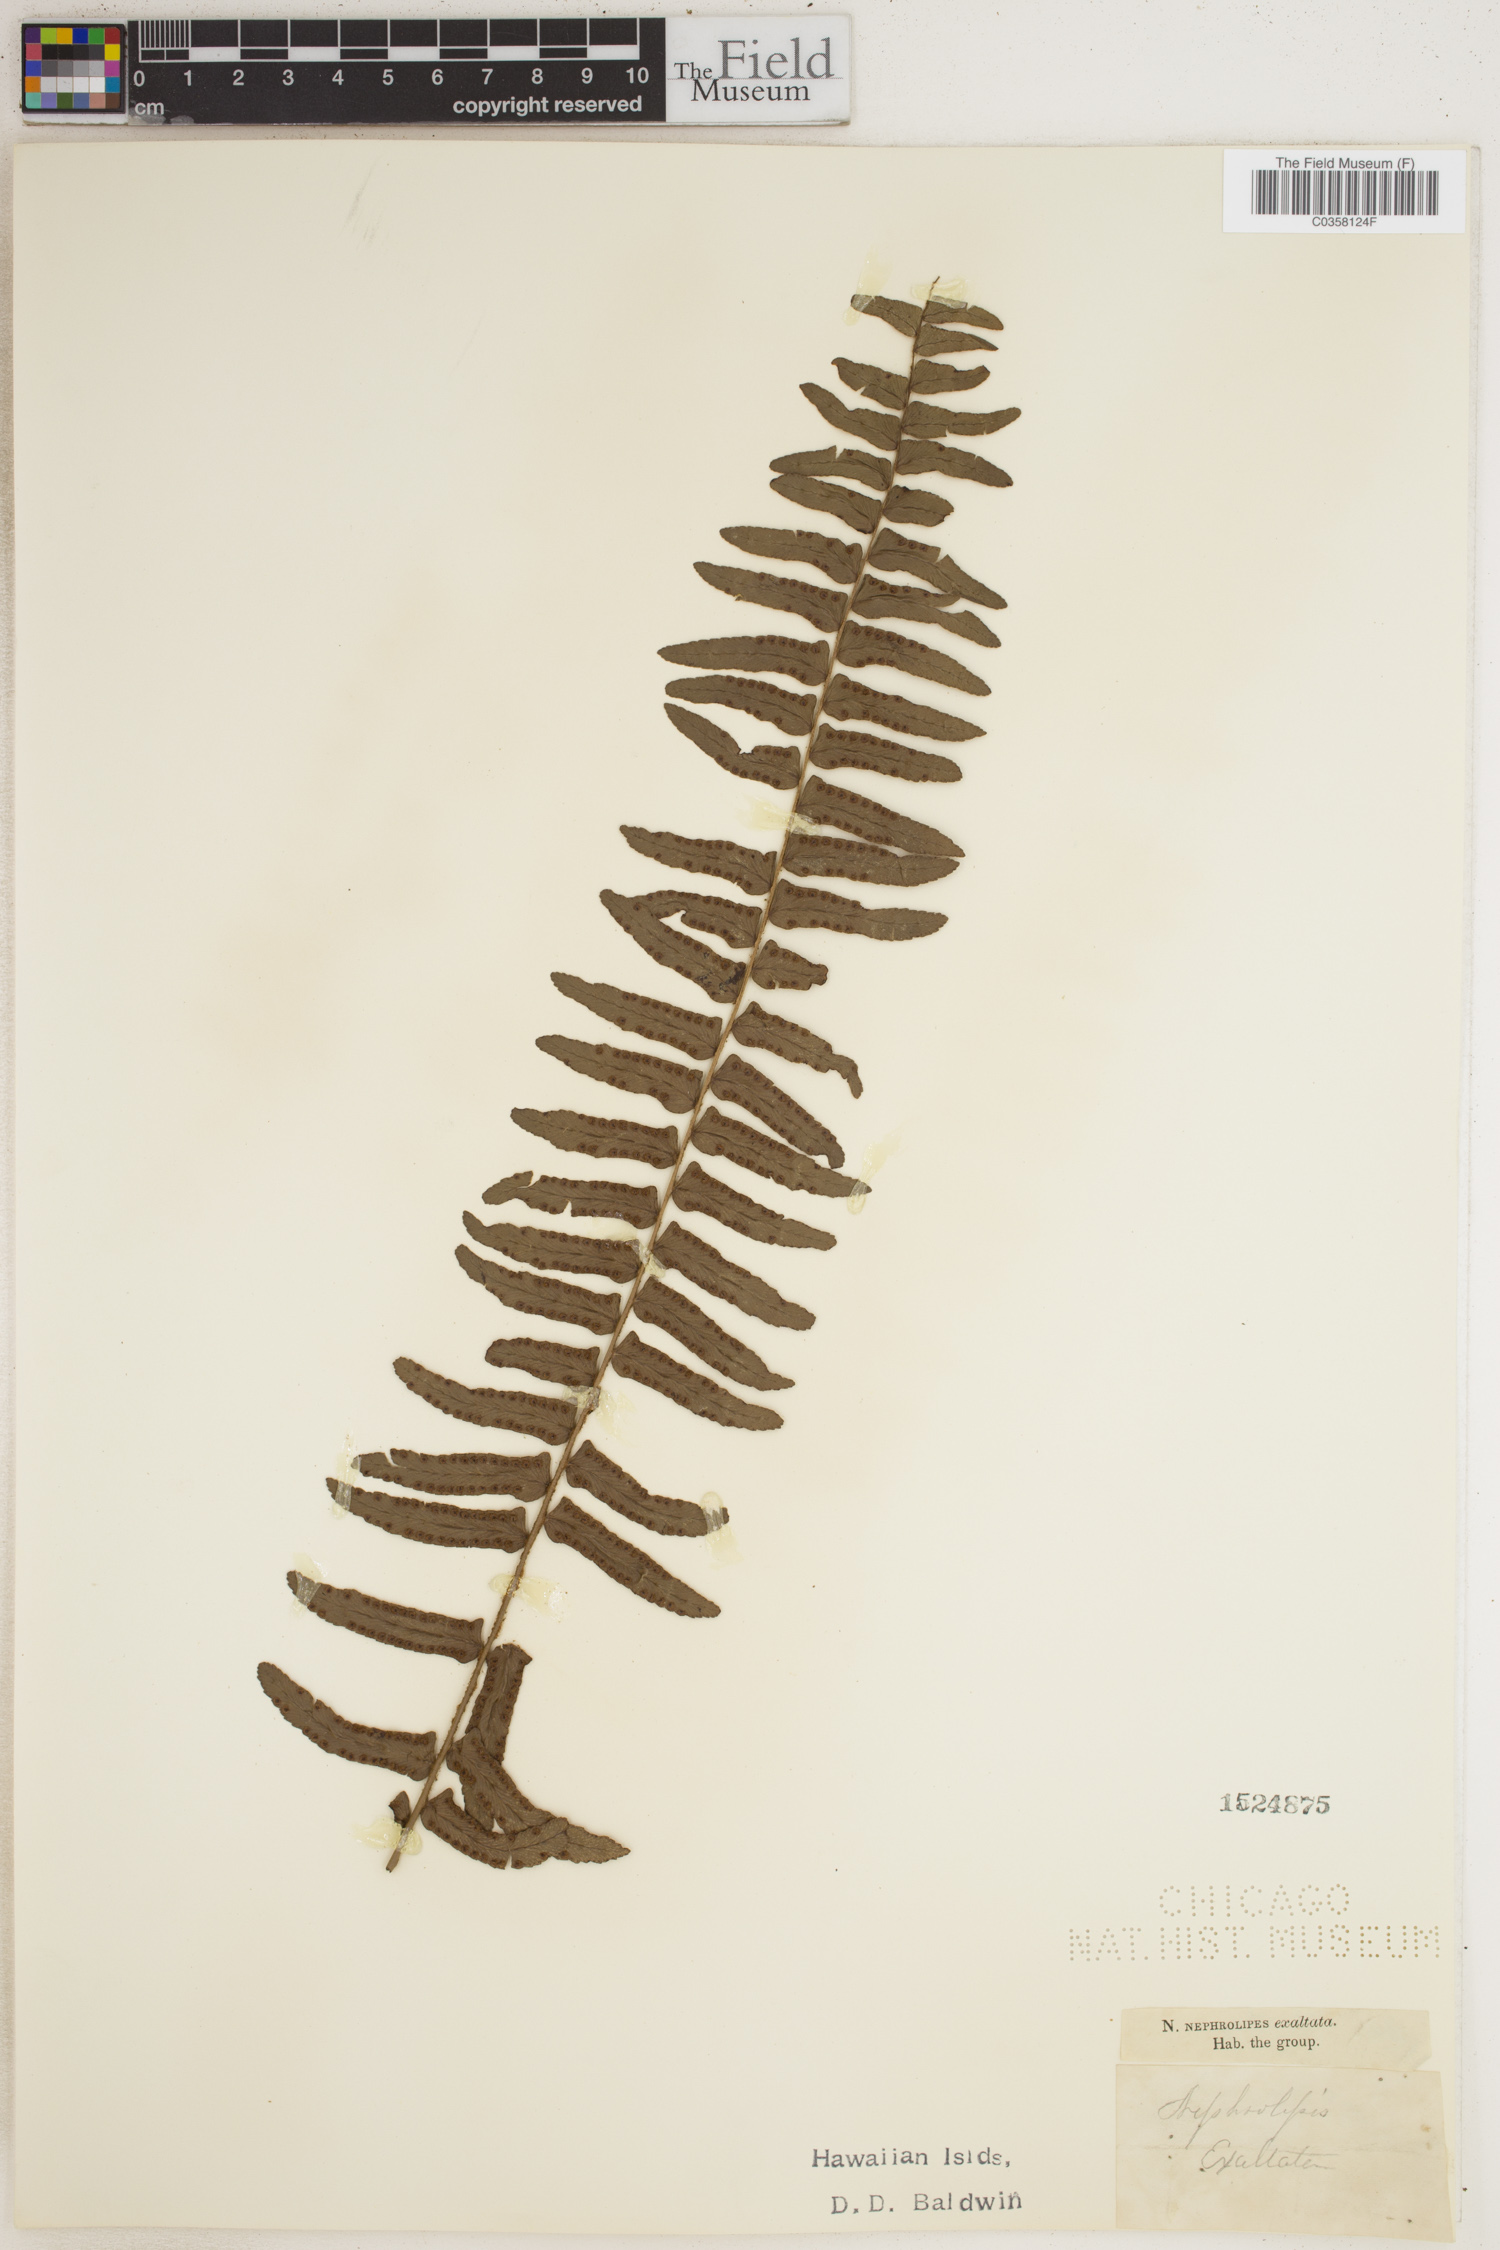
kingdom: Plantae
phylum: Tracheophyta
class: Polypodiopsida
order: Polypodiales
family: Nephrolepidaceae
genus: Nephrolepis
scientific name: Nephrolepis cordifolia
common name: Narrow swordfern
